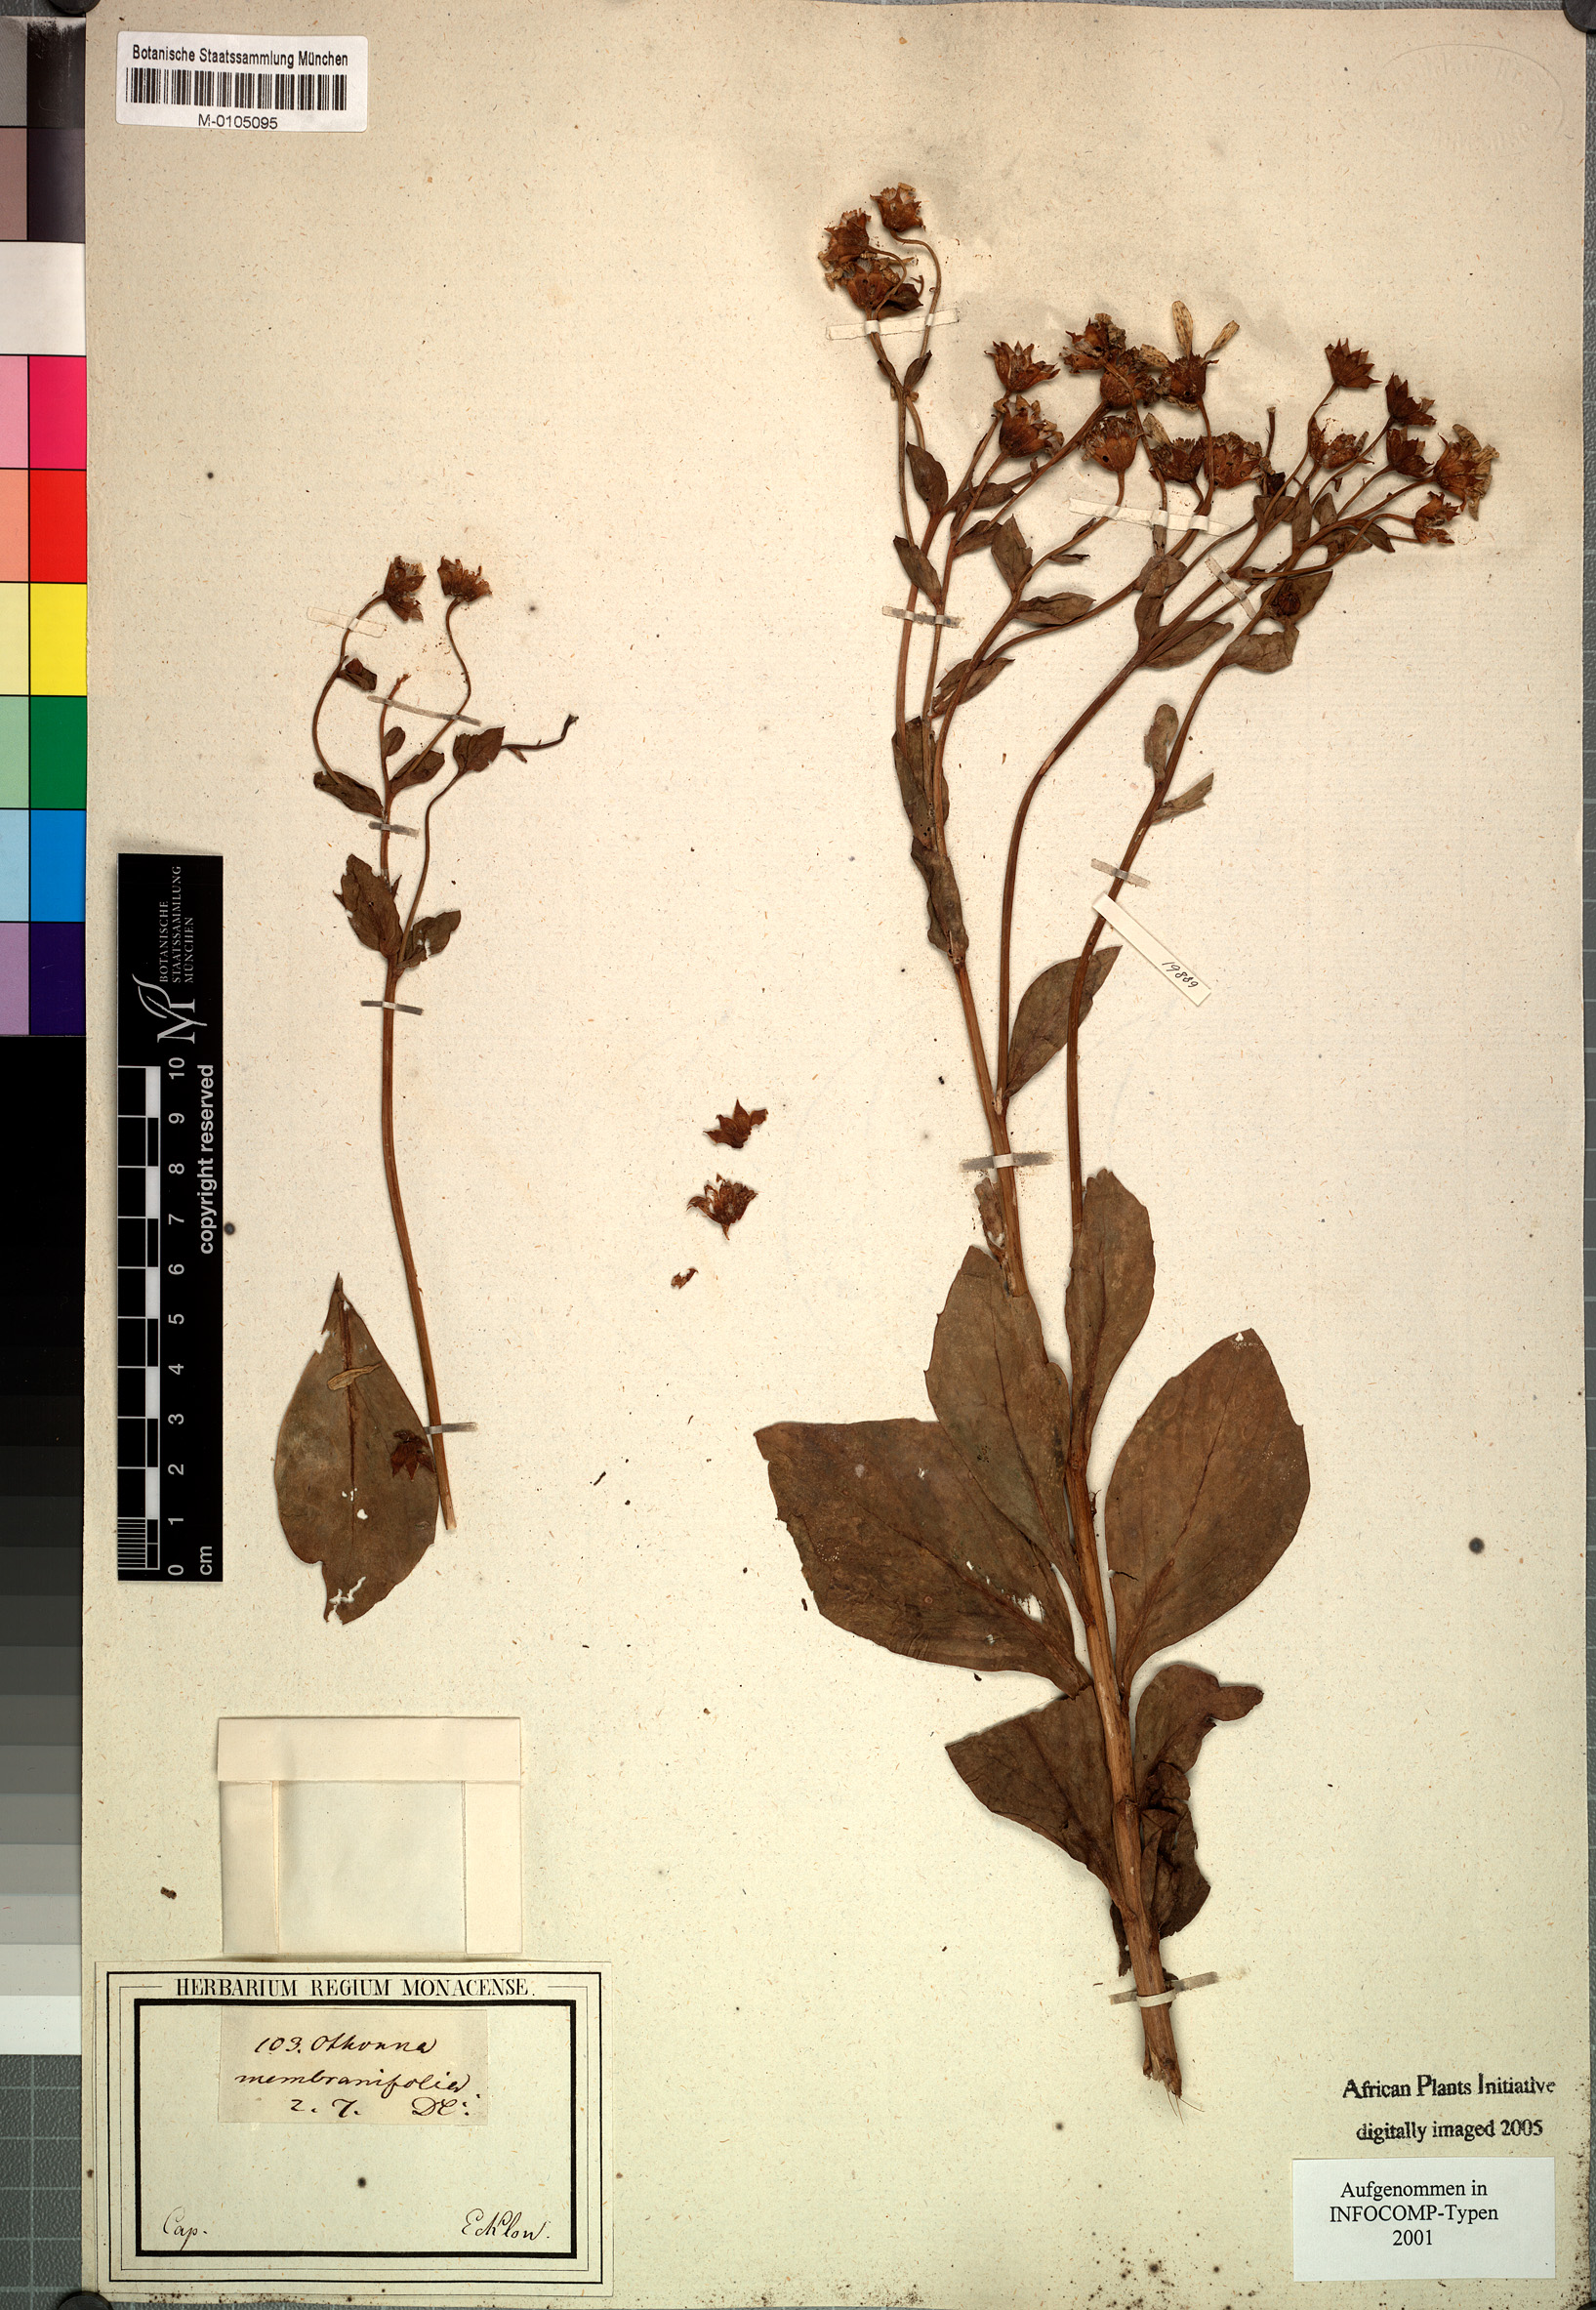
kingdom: Plantae
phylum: Tracheophyta
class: Magnoliopsida
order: Asterales
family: Asteraceae
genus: Othonna
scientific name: Othonna membranifolia
